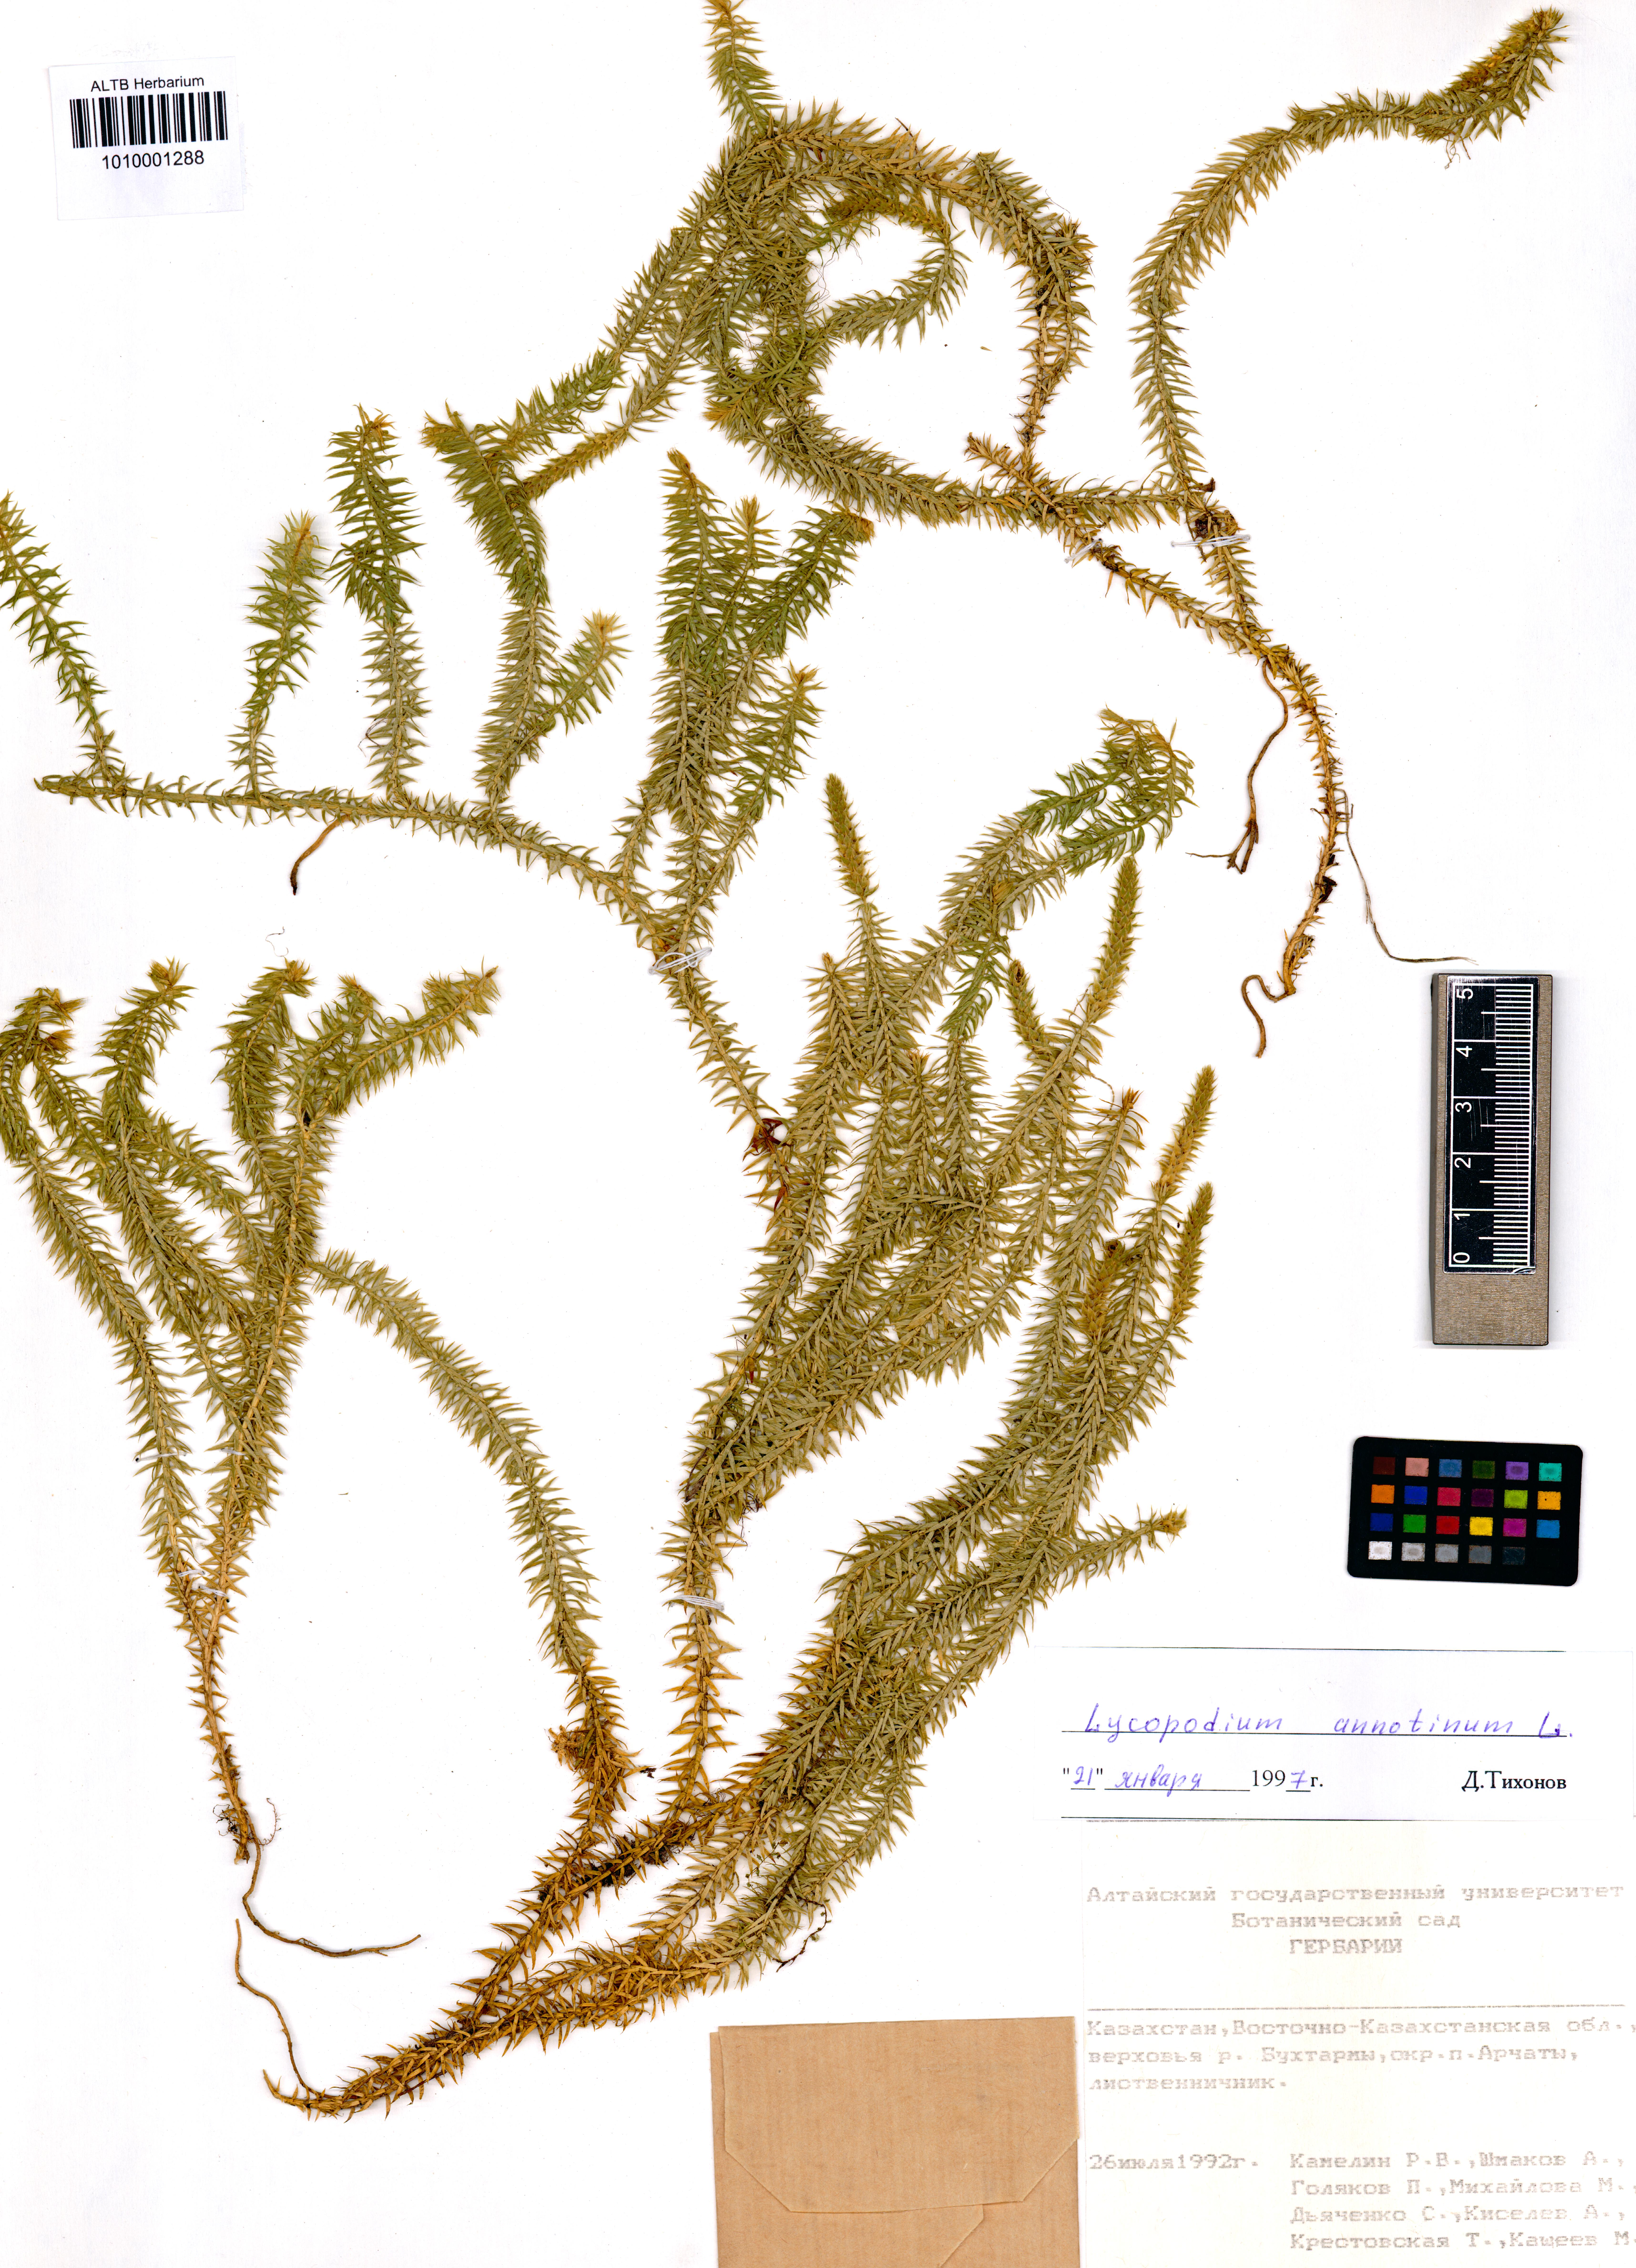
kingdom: Plantae
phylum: Tracheophyta
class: Lycopodiopsida
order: Lycopodiales
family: Lycopodiaceae
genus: Spinulum
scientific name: Spinulum annotinum
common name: Interrupted club-moss
